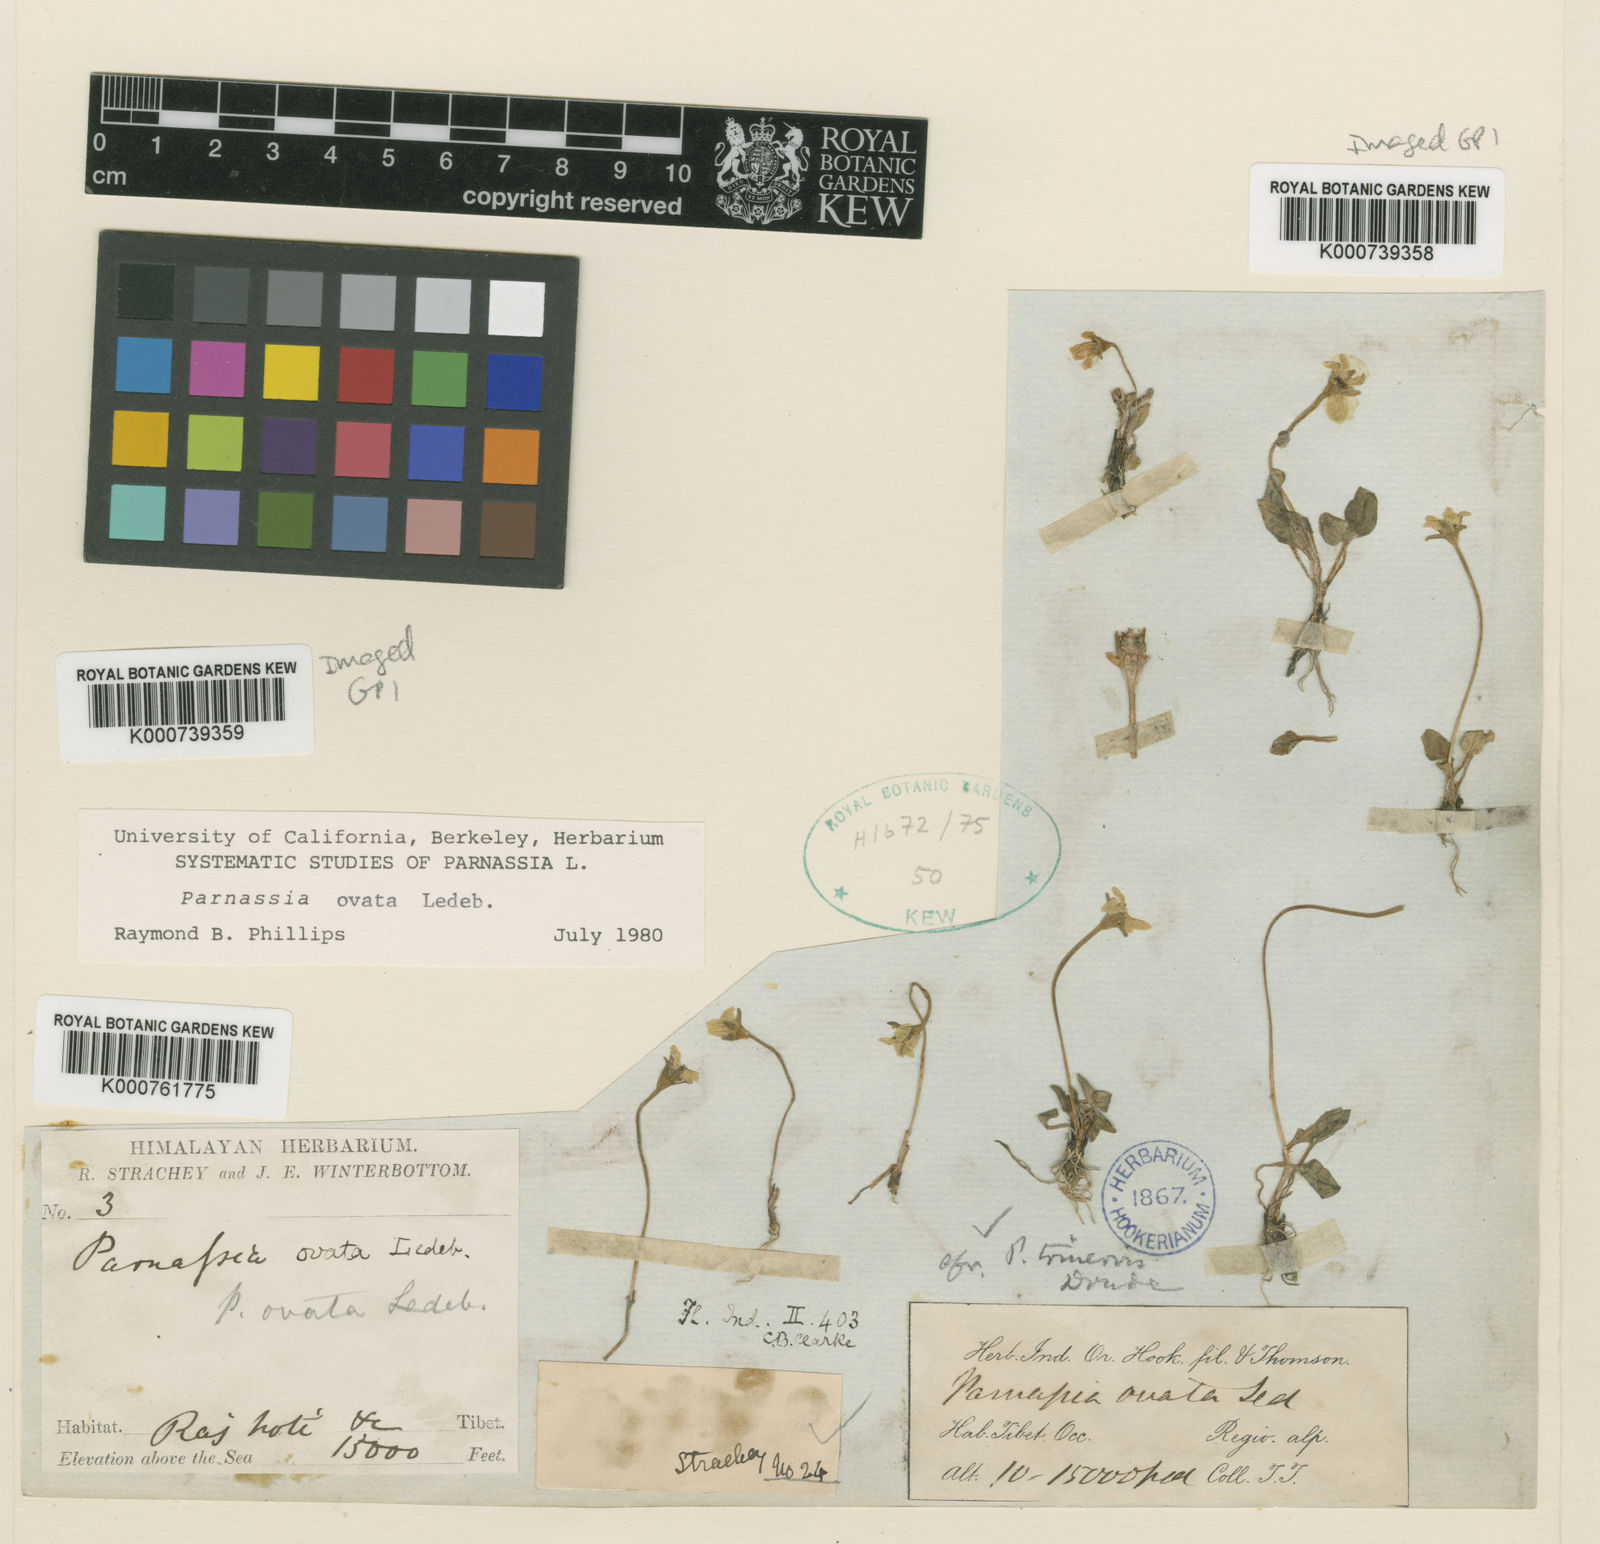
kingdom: Plantae
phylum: Tracheophyta
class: Magnoliopsida
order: Celastrales
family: Parnassiaceae
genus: Parnassia
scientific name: Parnassia trinervis
